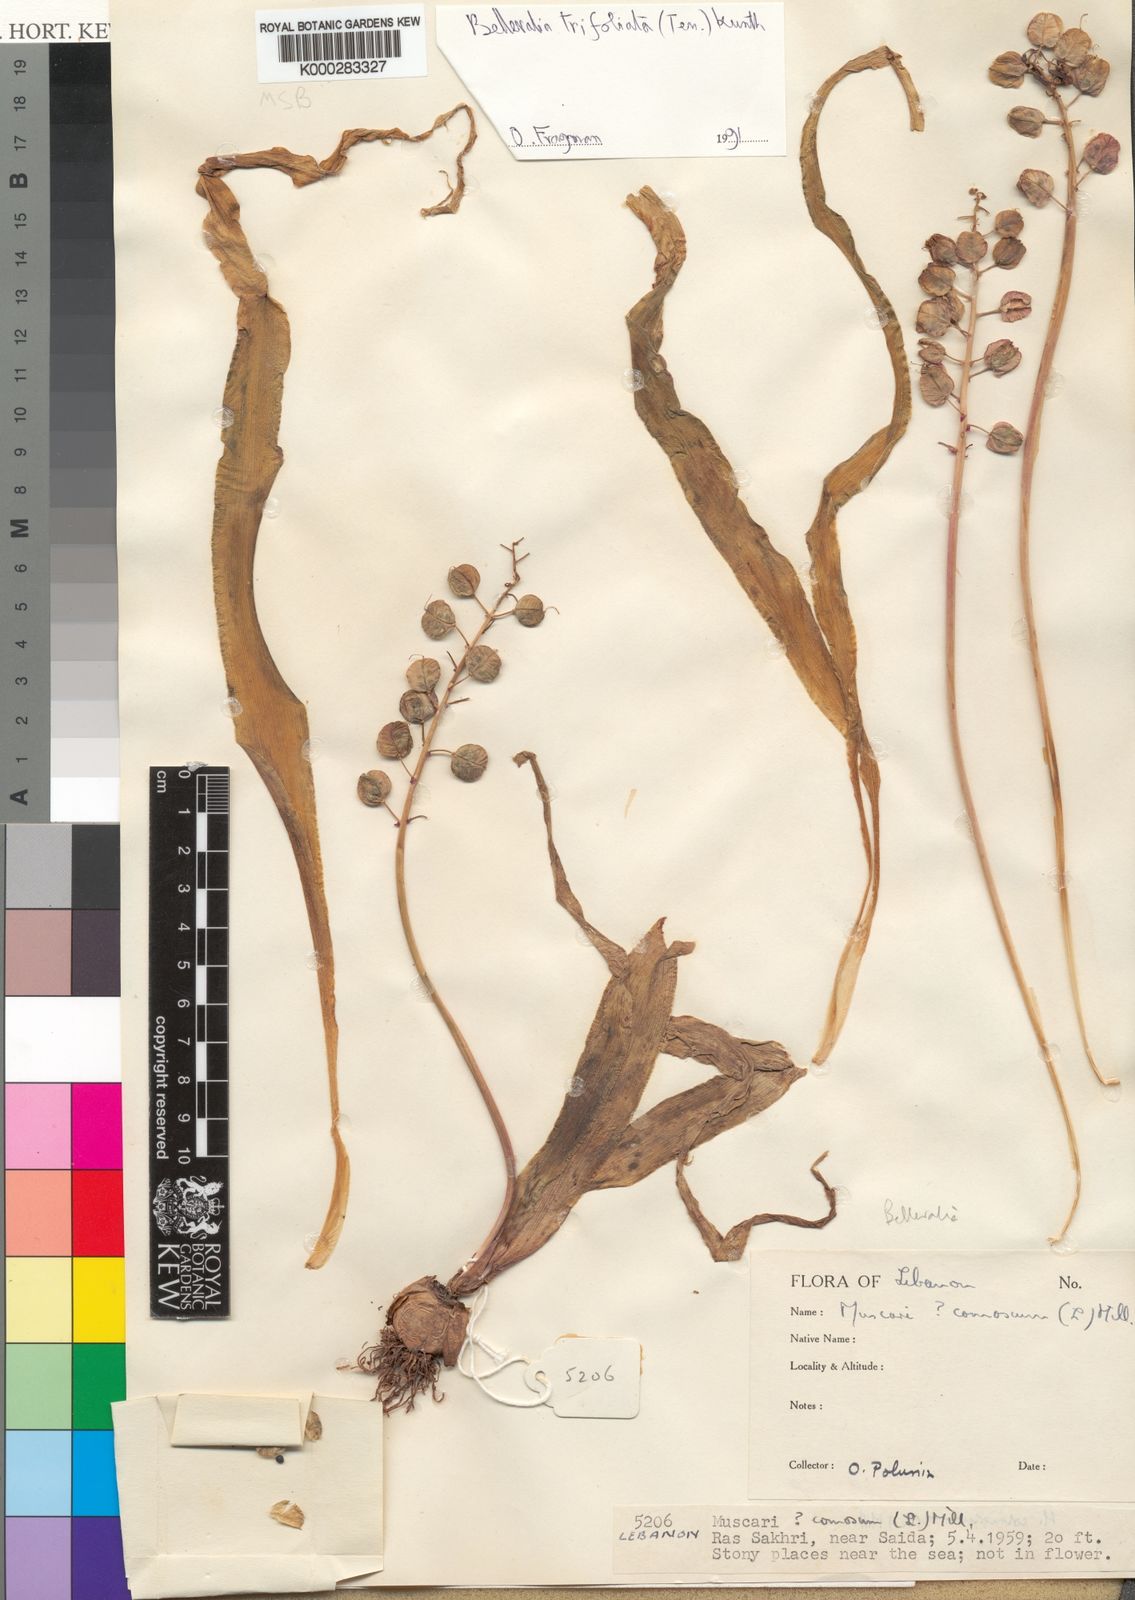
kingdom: Plantae
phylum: Tracheophyta
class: Liliopsida
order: Asparagales
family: Asparagaceae
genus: Bellevalia
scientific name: Bellevalia trifoliata
